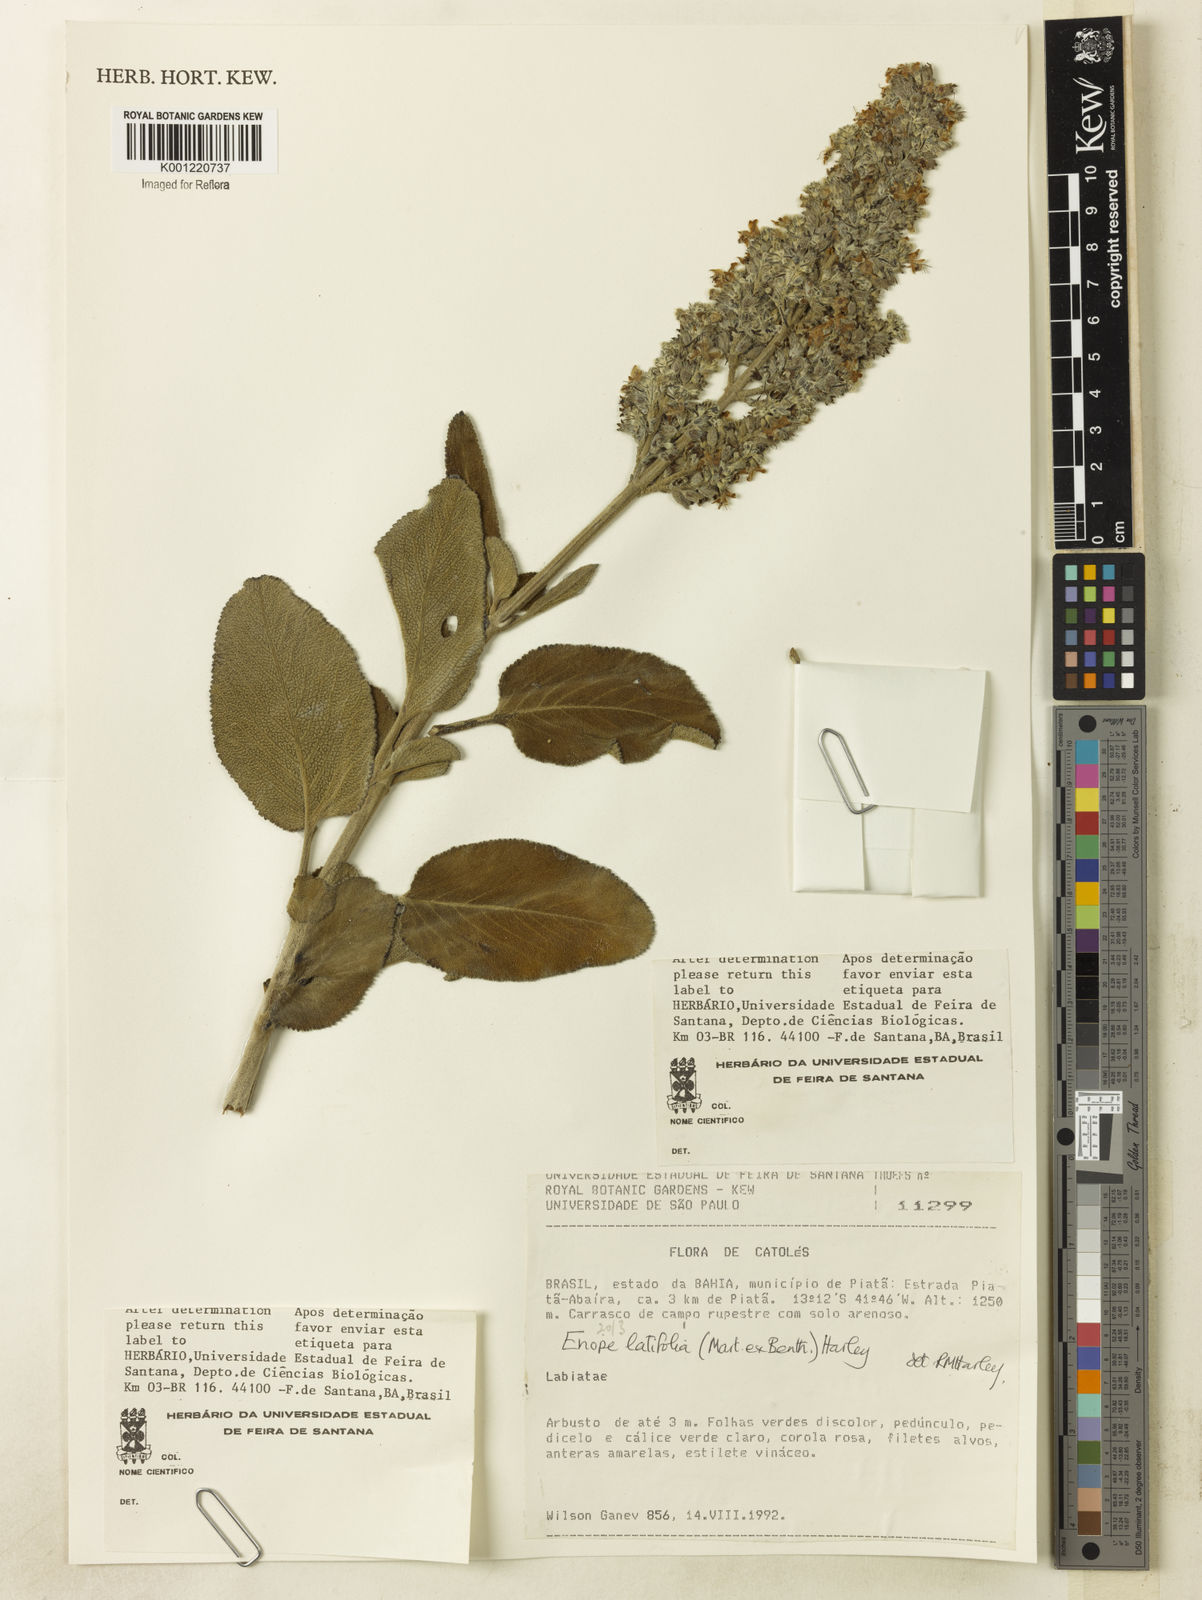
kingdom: Plantae
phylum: Tracheophyta
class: Magnoliopsida
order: Lamiales
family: Lamiaceae
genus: Eriope
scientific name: Eriope latifolia
